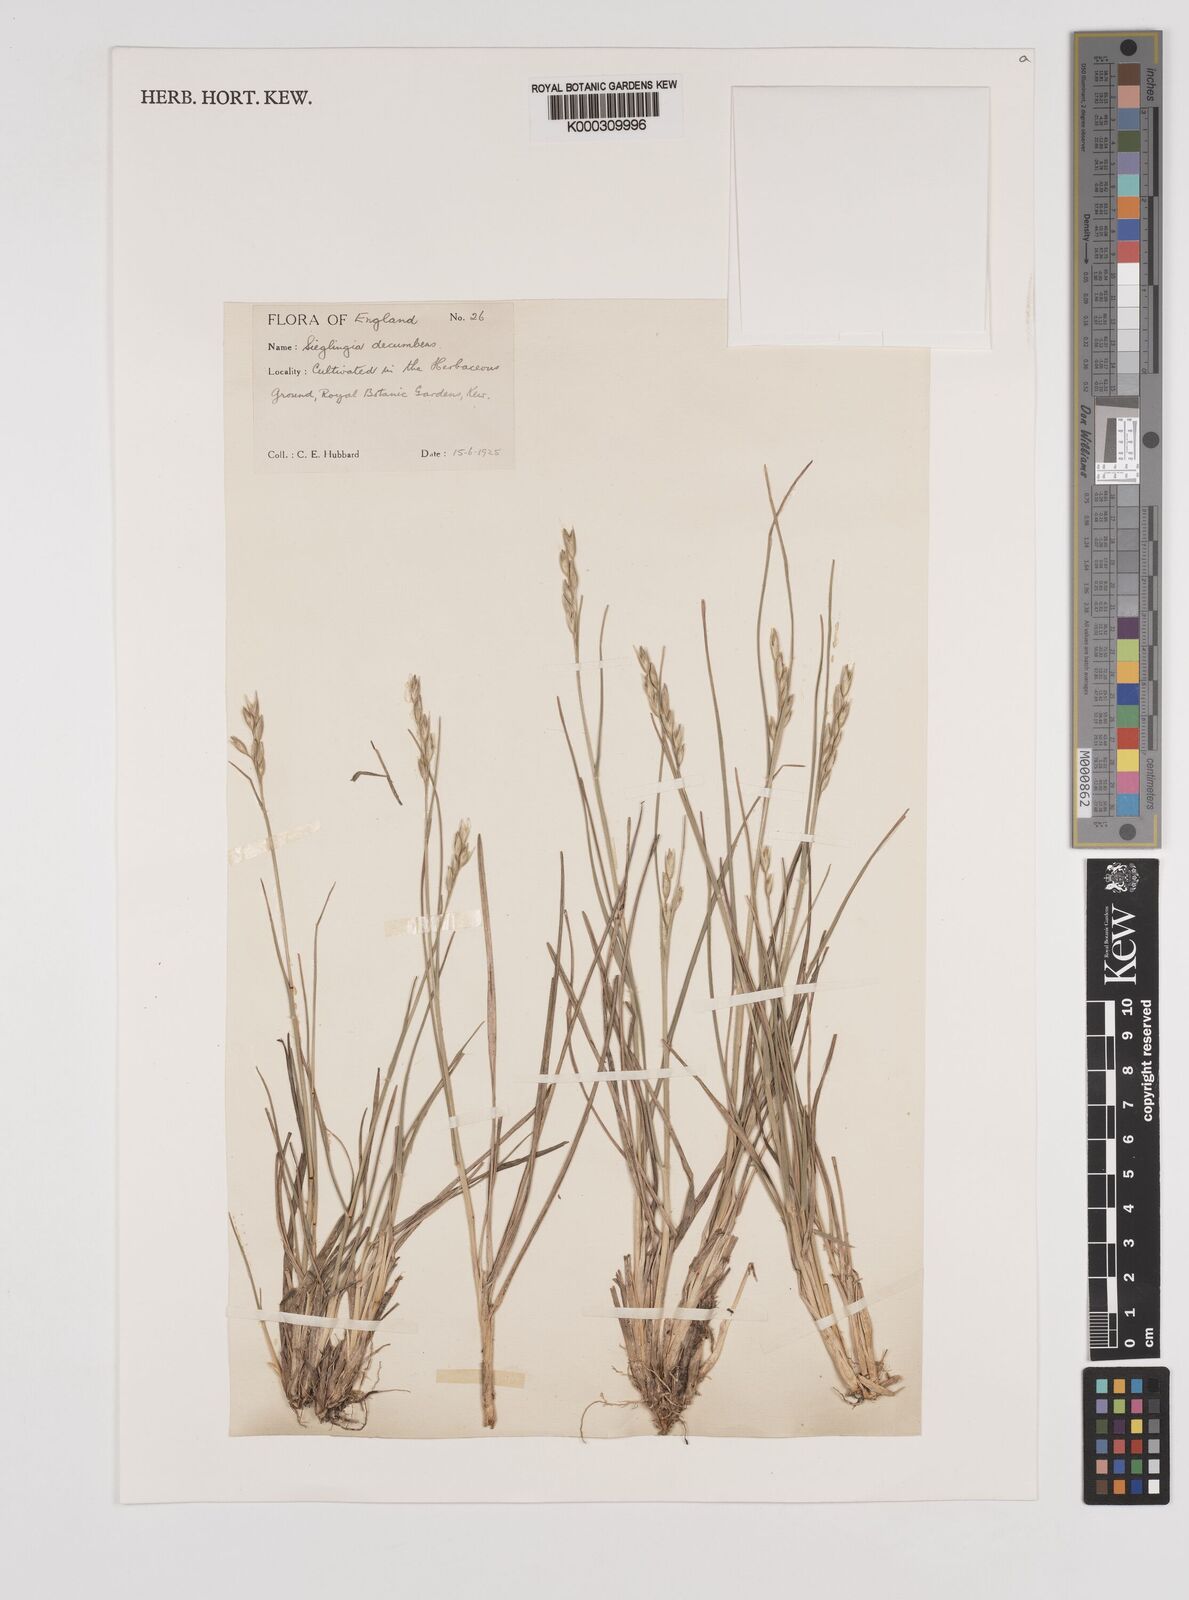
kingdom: Plantae
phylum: Tracheophyta
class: Liliopsida
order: Poales
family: Poaceae
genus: Danthonia
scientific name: Danthonia decumbens
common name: Common heathgrass
